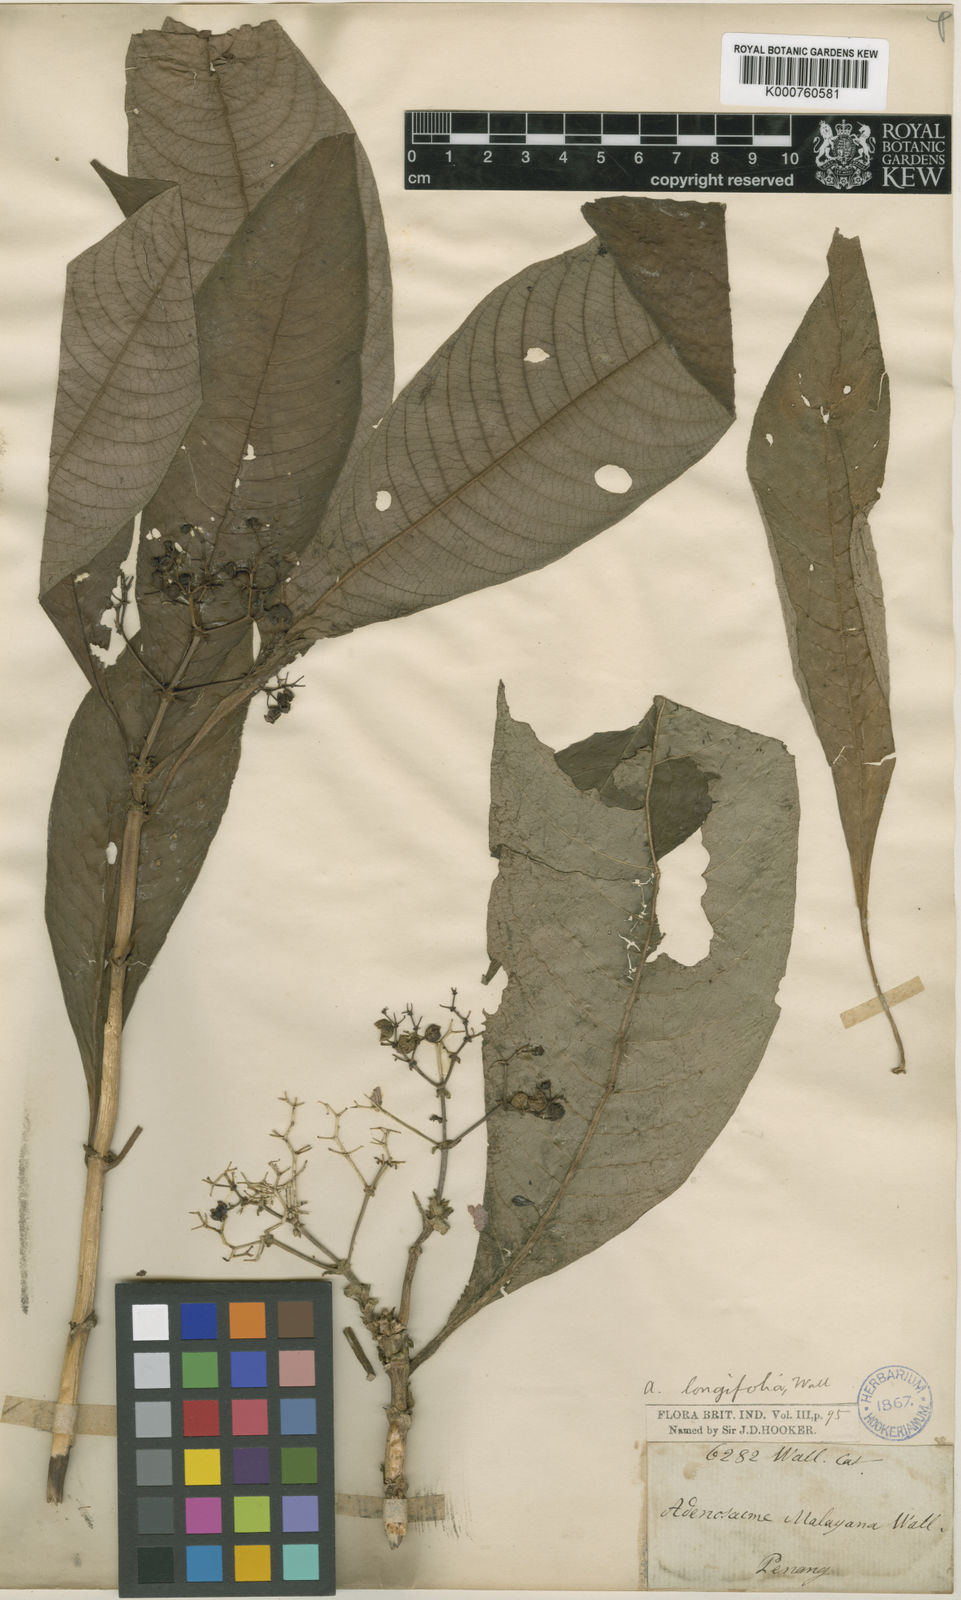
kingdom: Plantae
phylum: Tracheophyta
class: Magnoliopsida
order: Gentianales
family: Rubiaceae
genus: Mycetia
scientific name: Mycetia malayana
